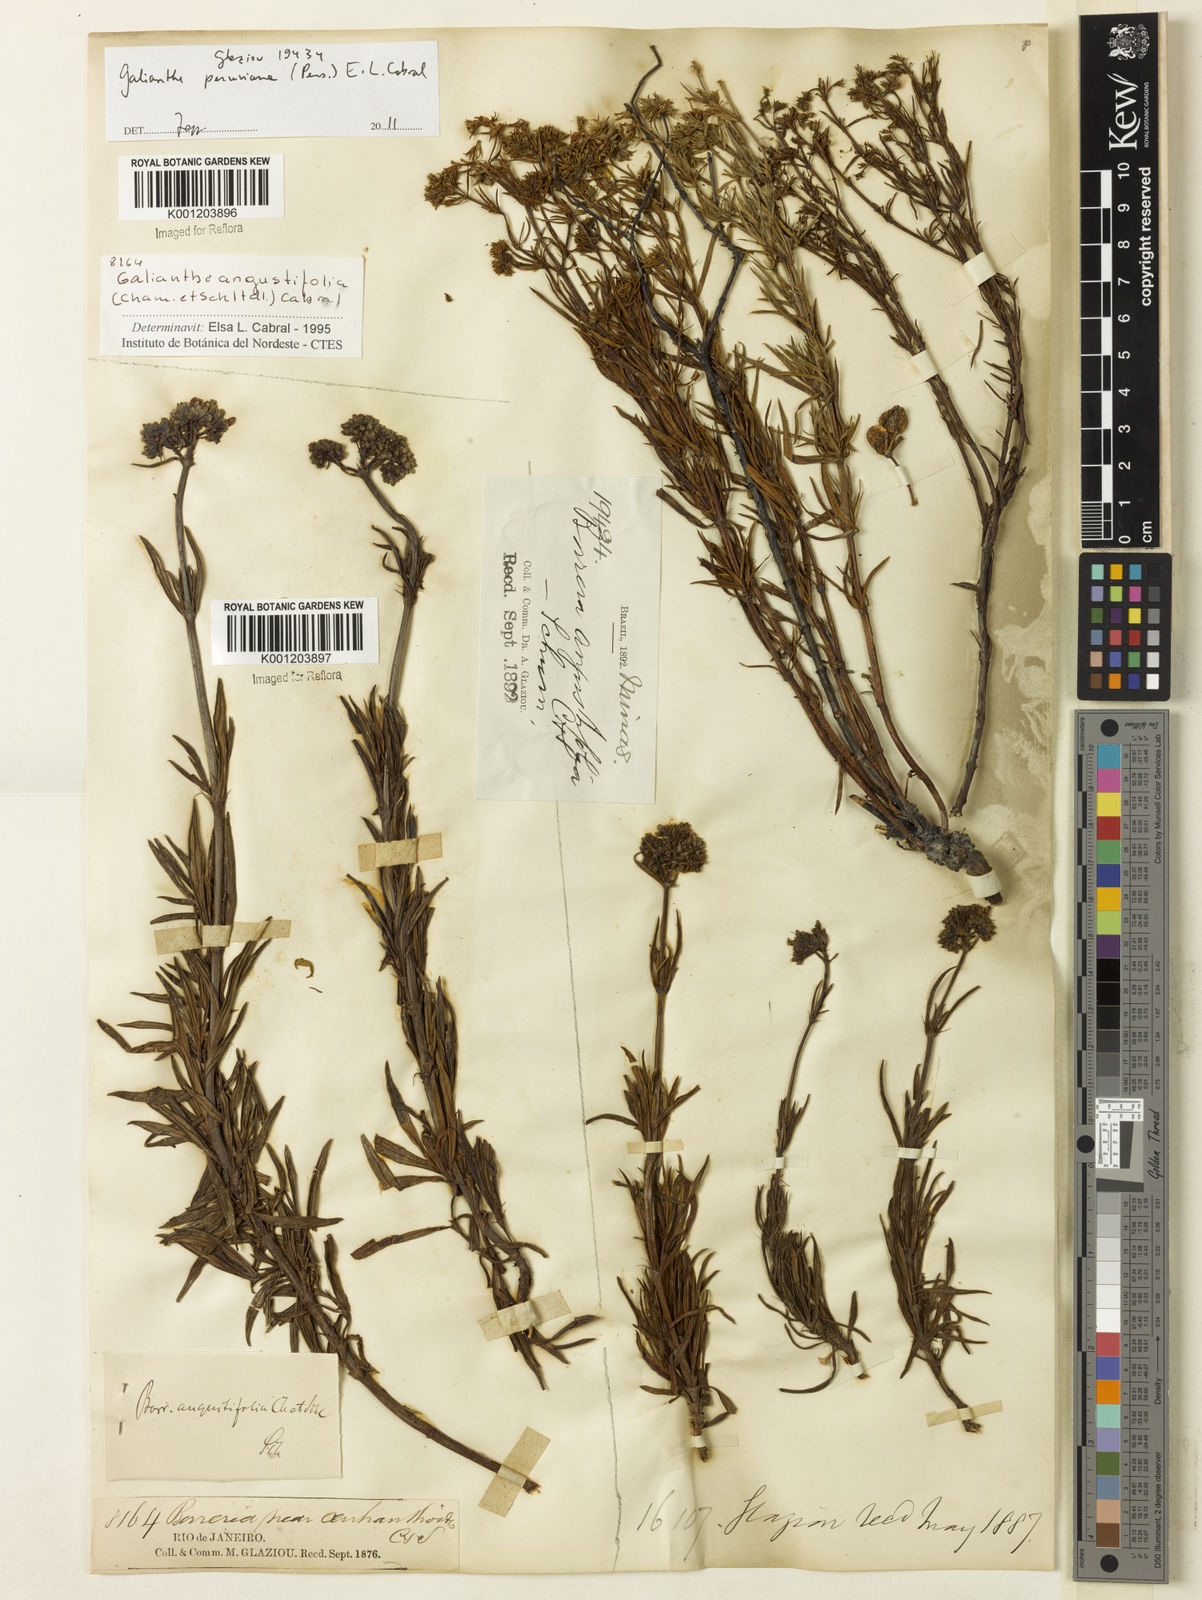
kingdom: Plantae
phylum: Tracheophyta
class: Magnoliopsida
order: Gentianales
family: Rubiaceae
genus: Galianthe
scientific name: Galianthe angustifolia
